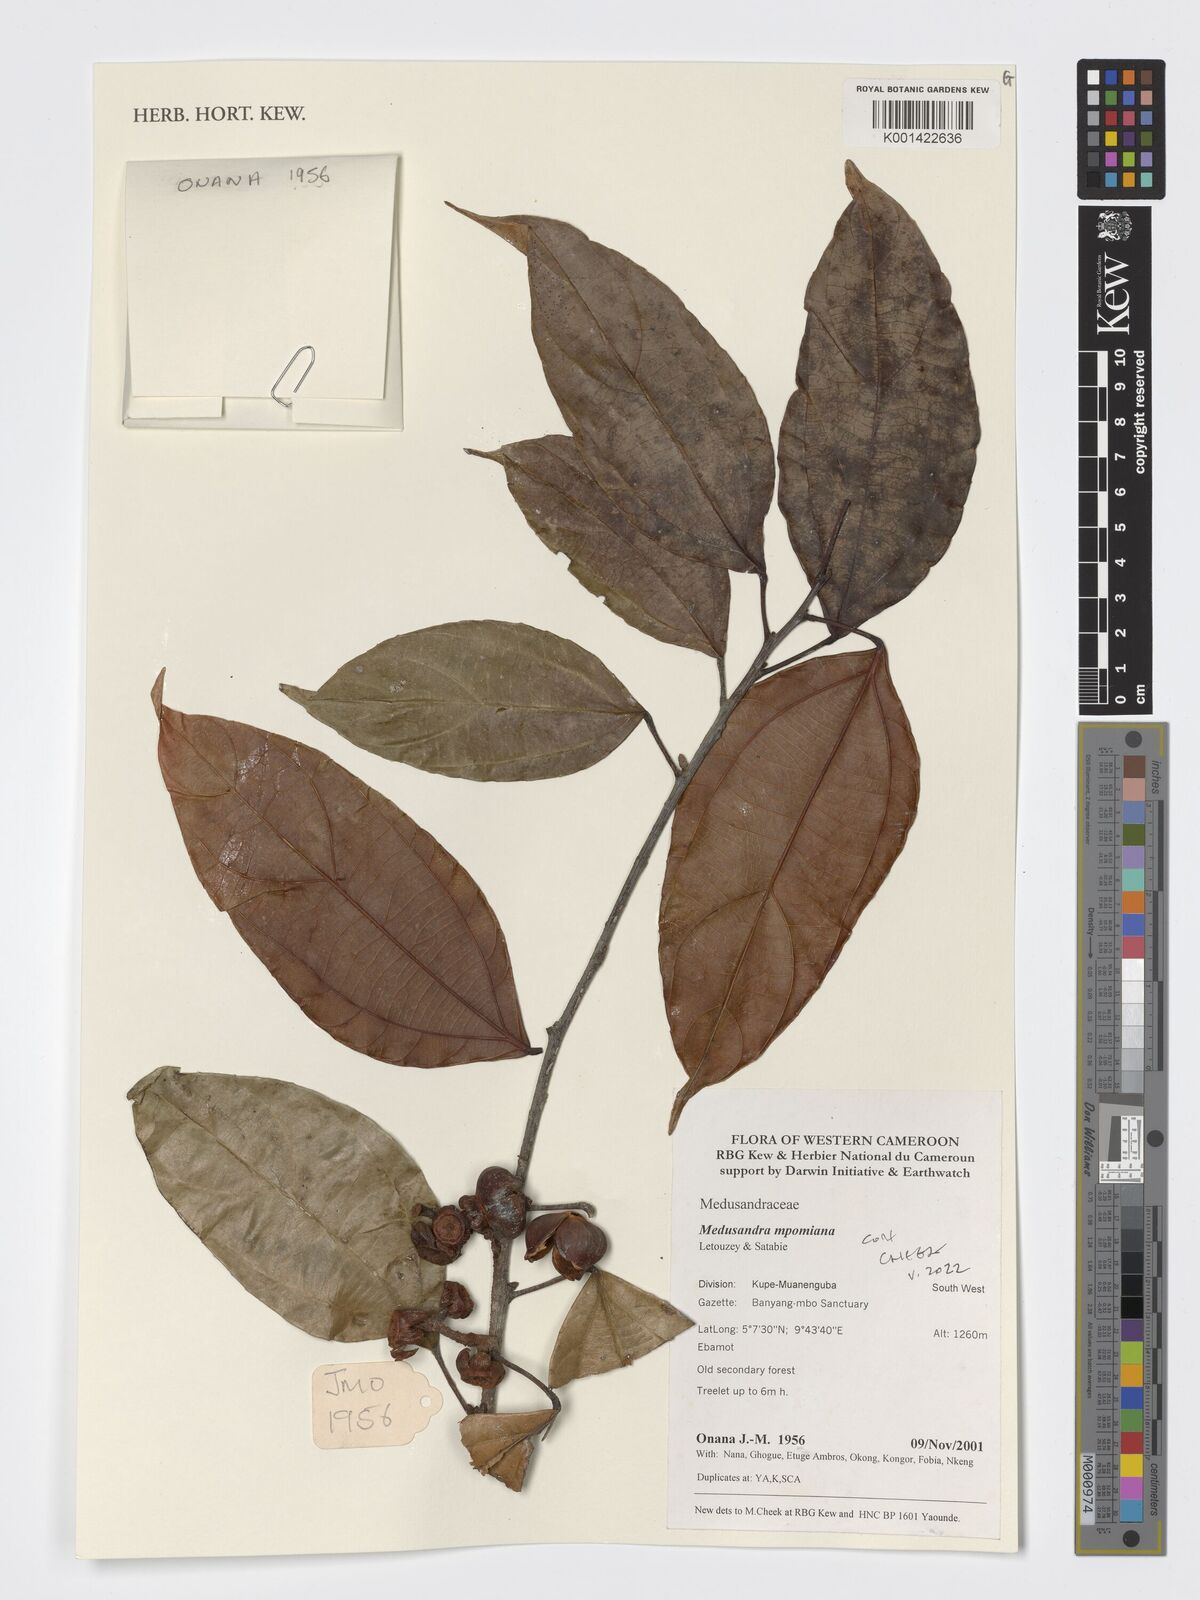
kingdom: Plantae
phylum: Tracheophyta
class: Magnoliopsida
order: Saxifragales
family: Peridiscaceae
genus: Medusandra
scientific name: Medusandra mpomiana
